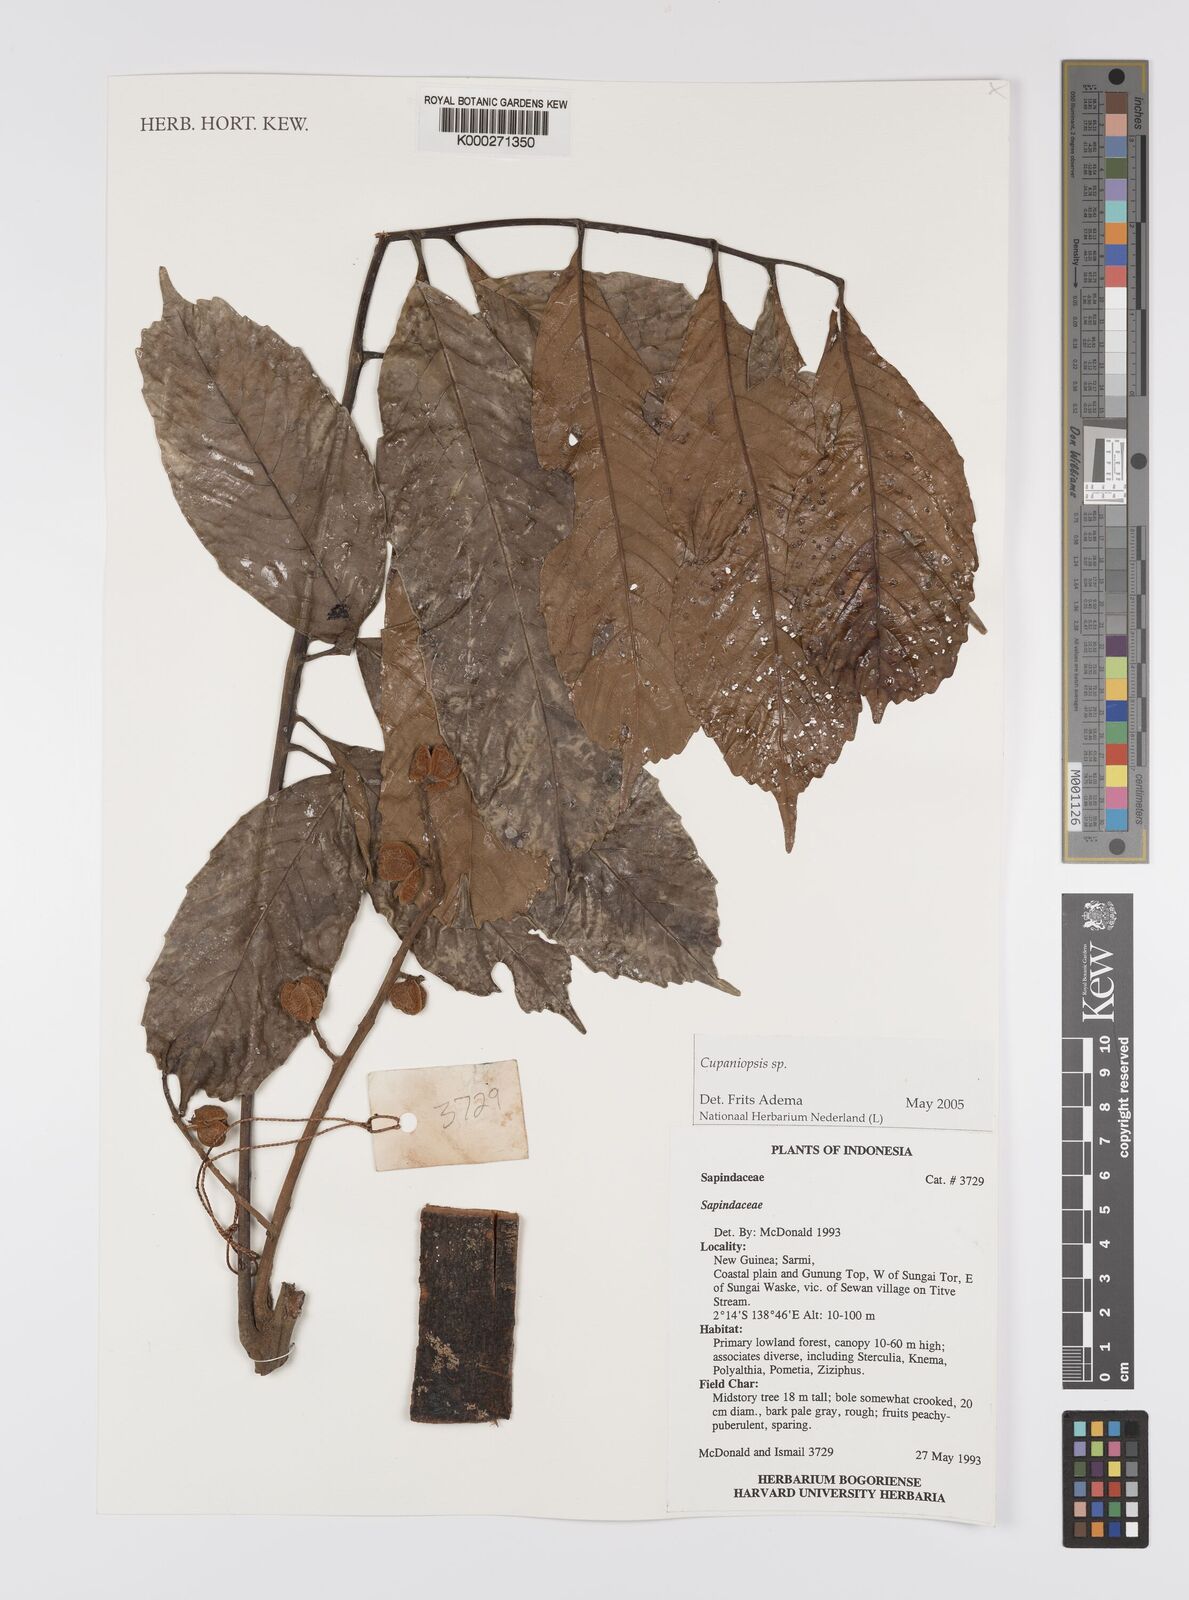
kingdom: Plantae
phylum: Tracheophyta
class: Magnoliopsida
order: Sapindales
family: Sapindaceae
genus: Cupaniopsis
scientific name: Cupaniopsis
